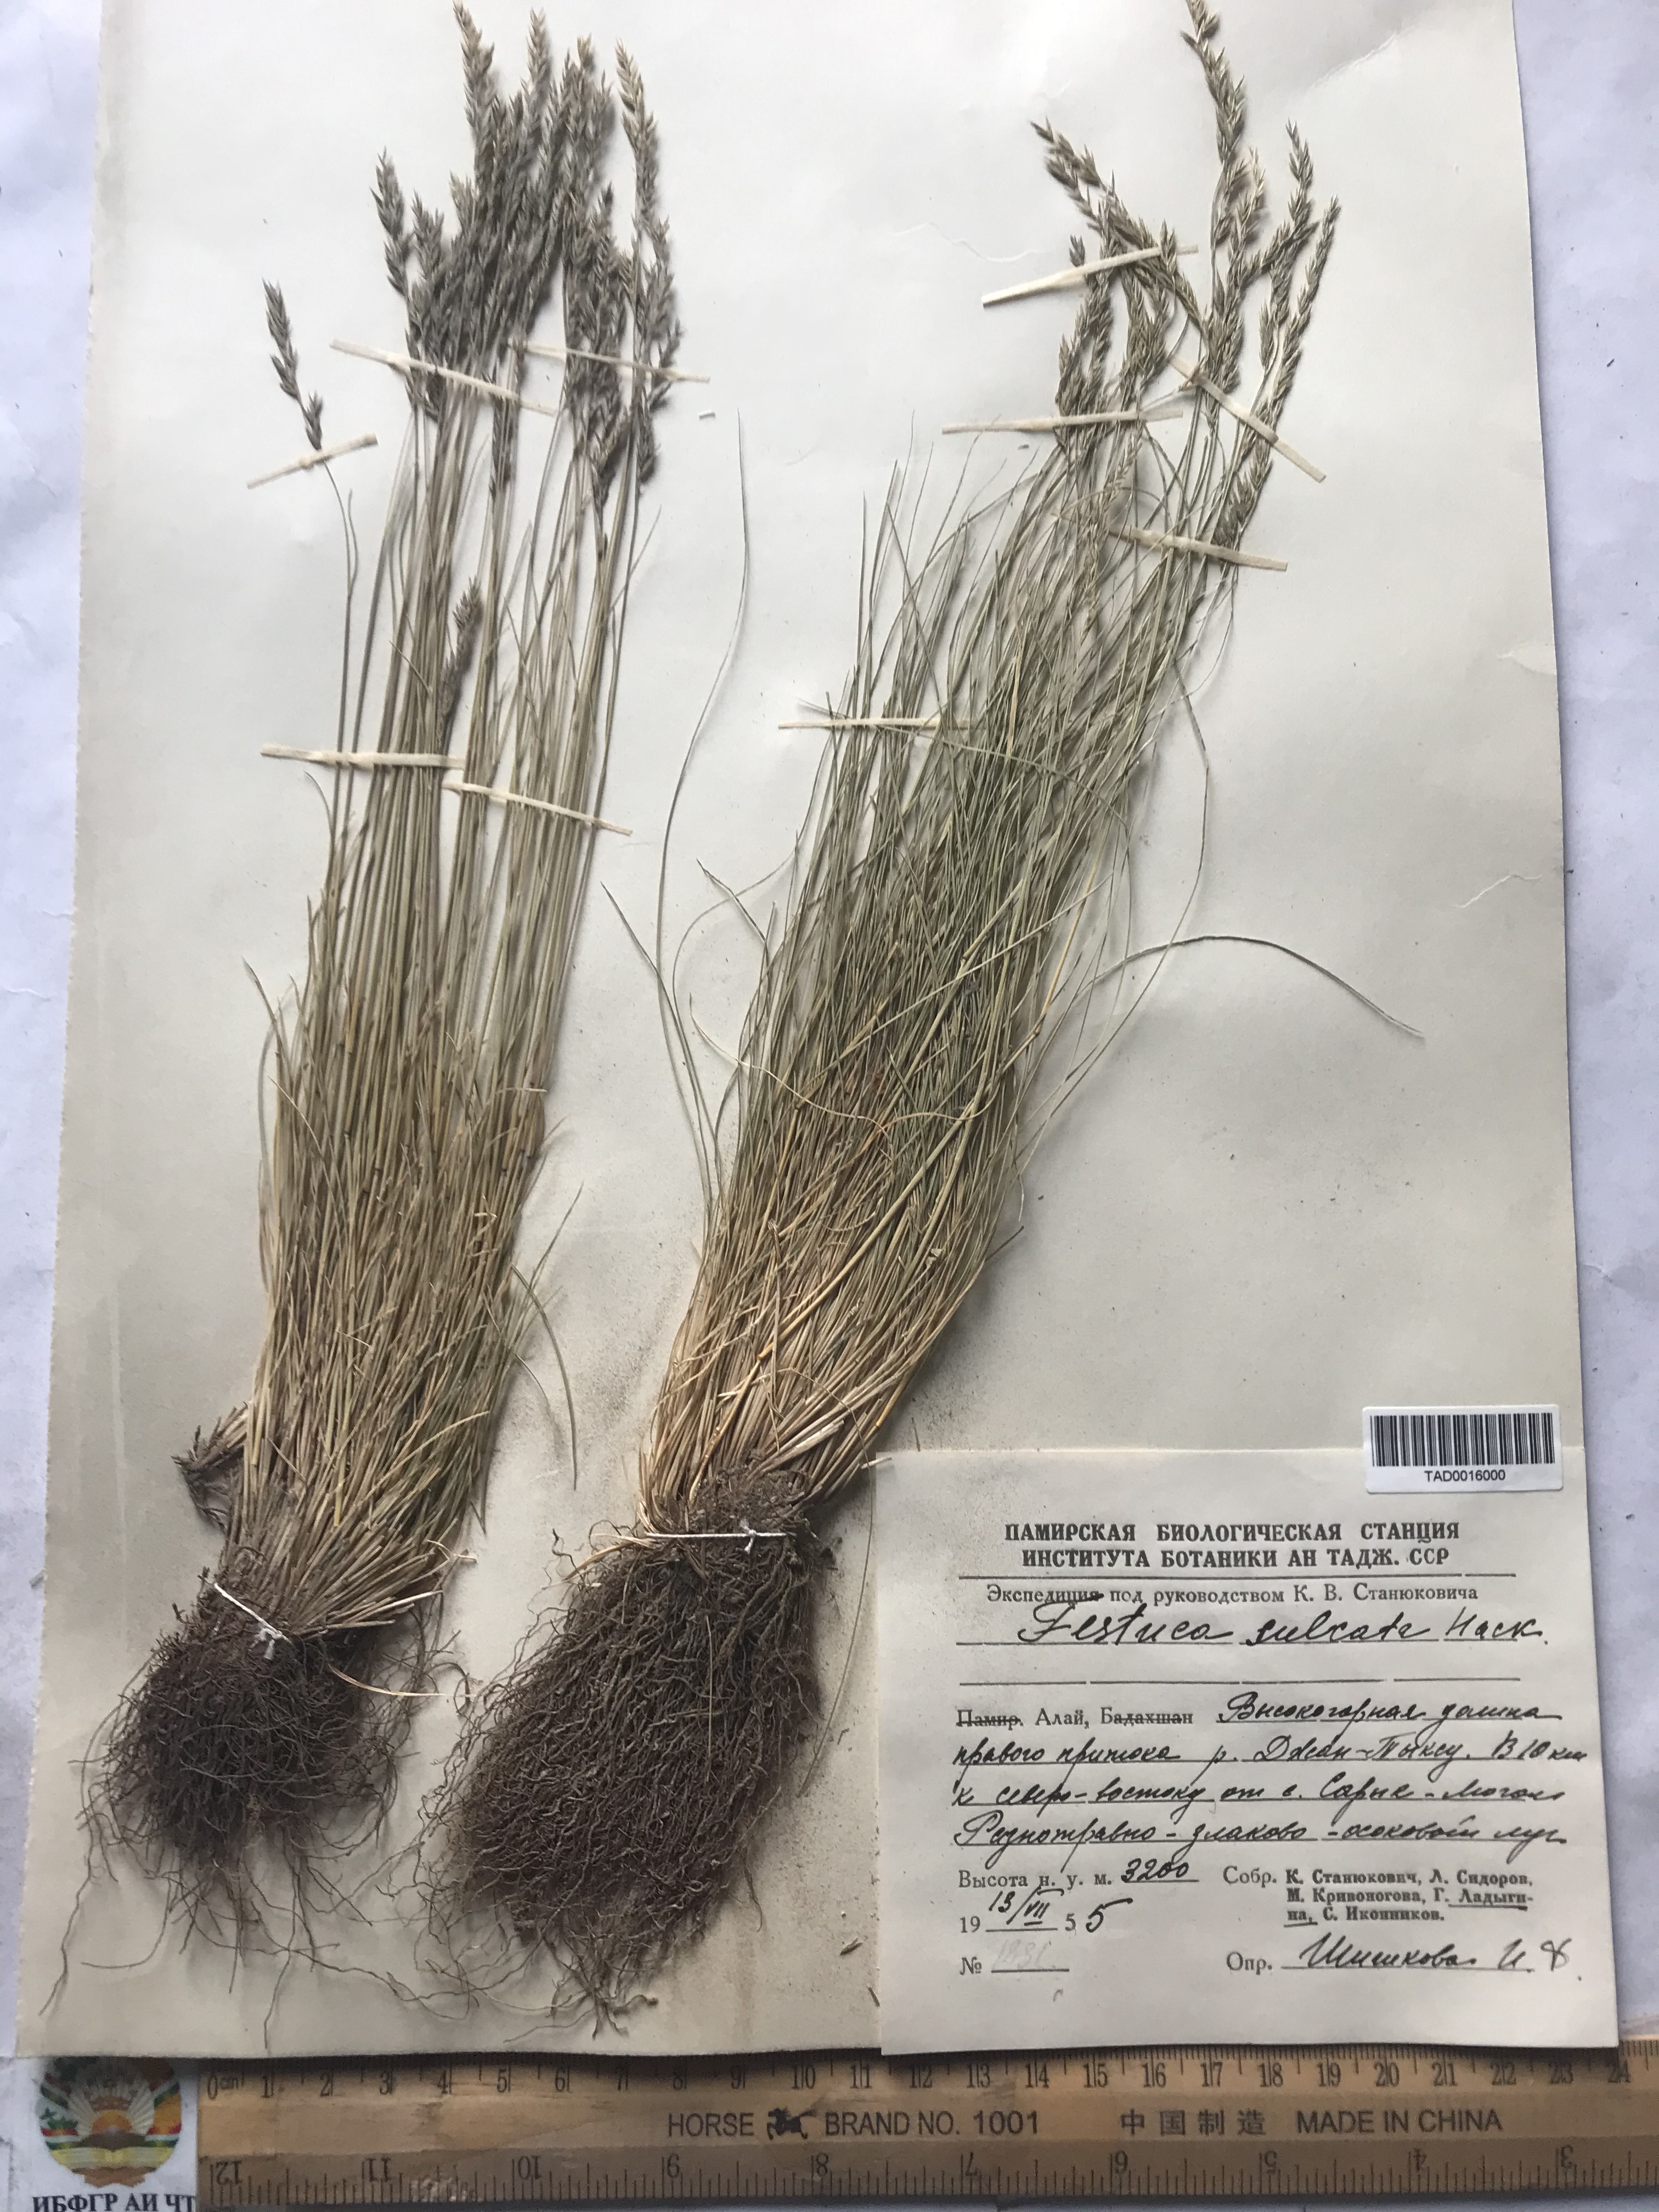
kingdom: Plantae
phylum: Tracheophyta
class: Liliopsida
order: Poales
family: Poaceae
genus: Festuca
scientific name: Festuca sulcata
